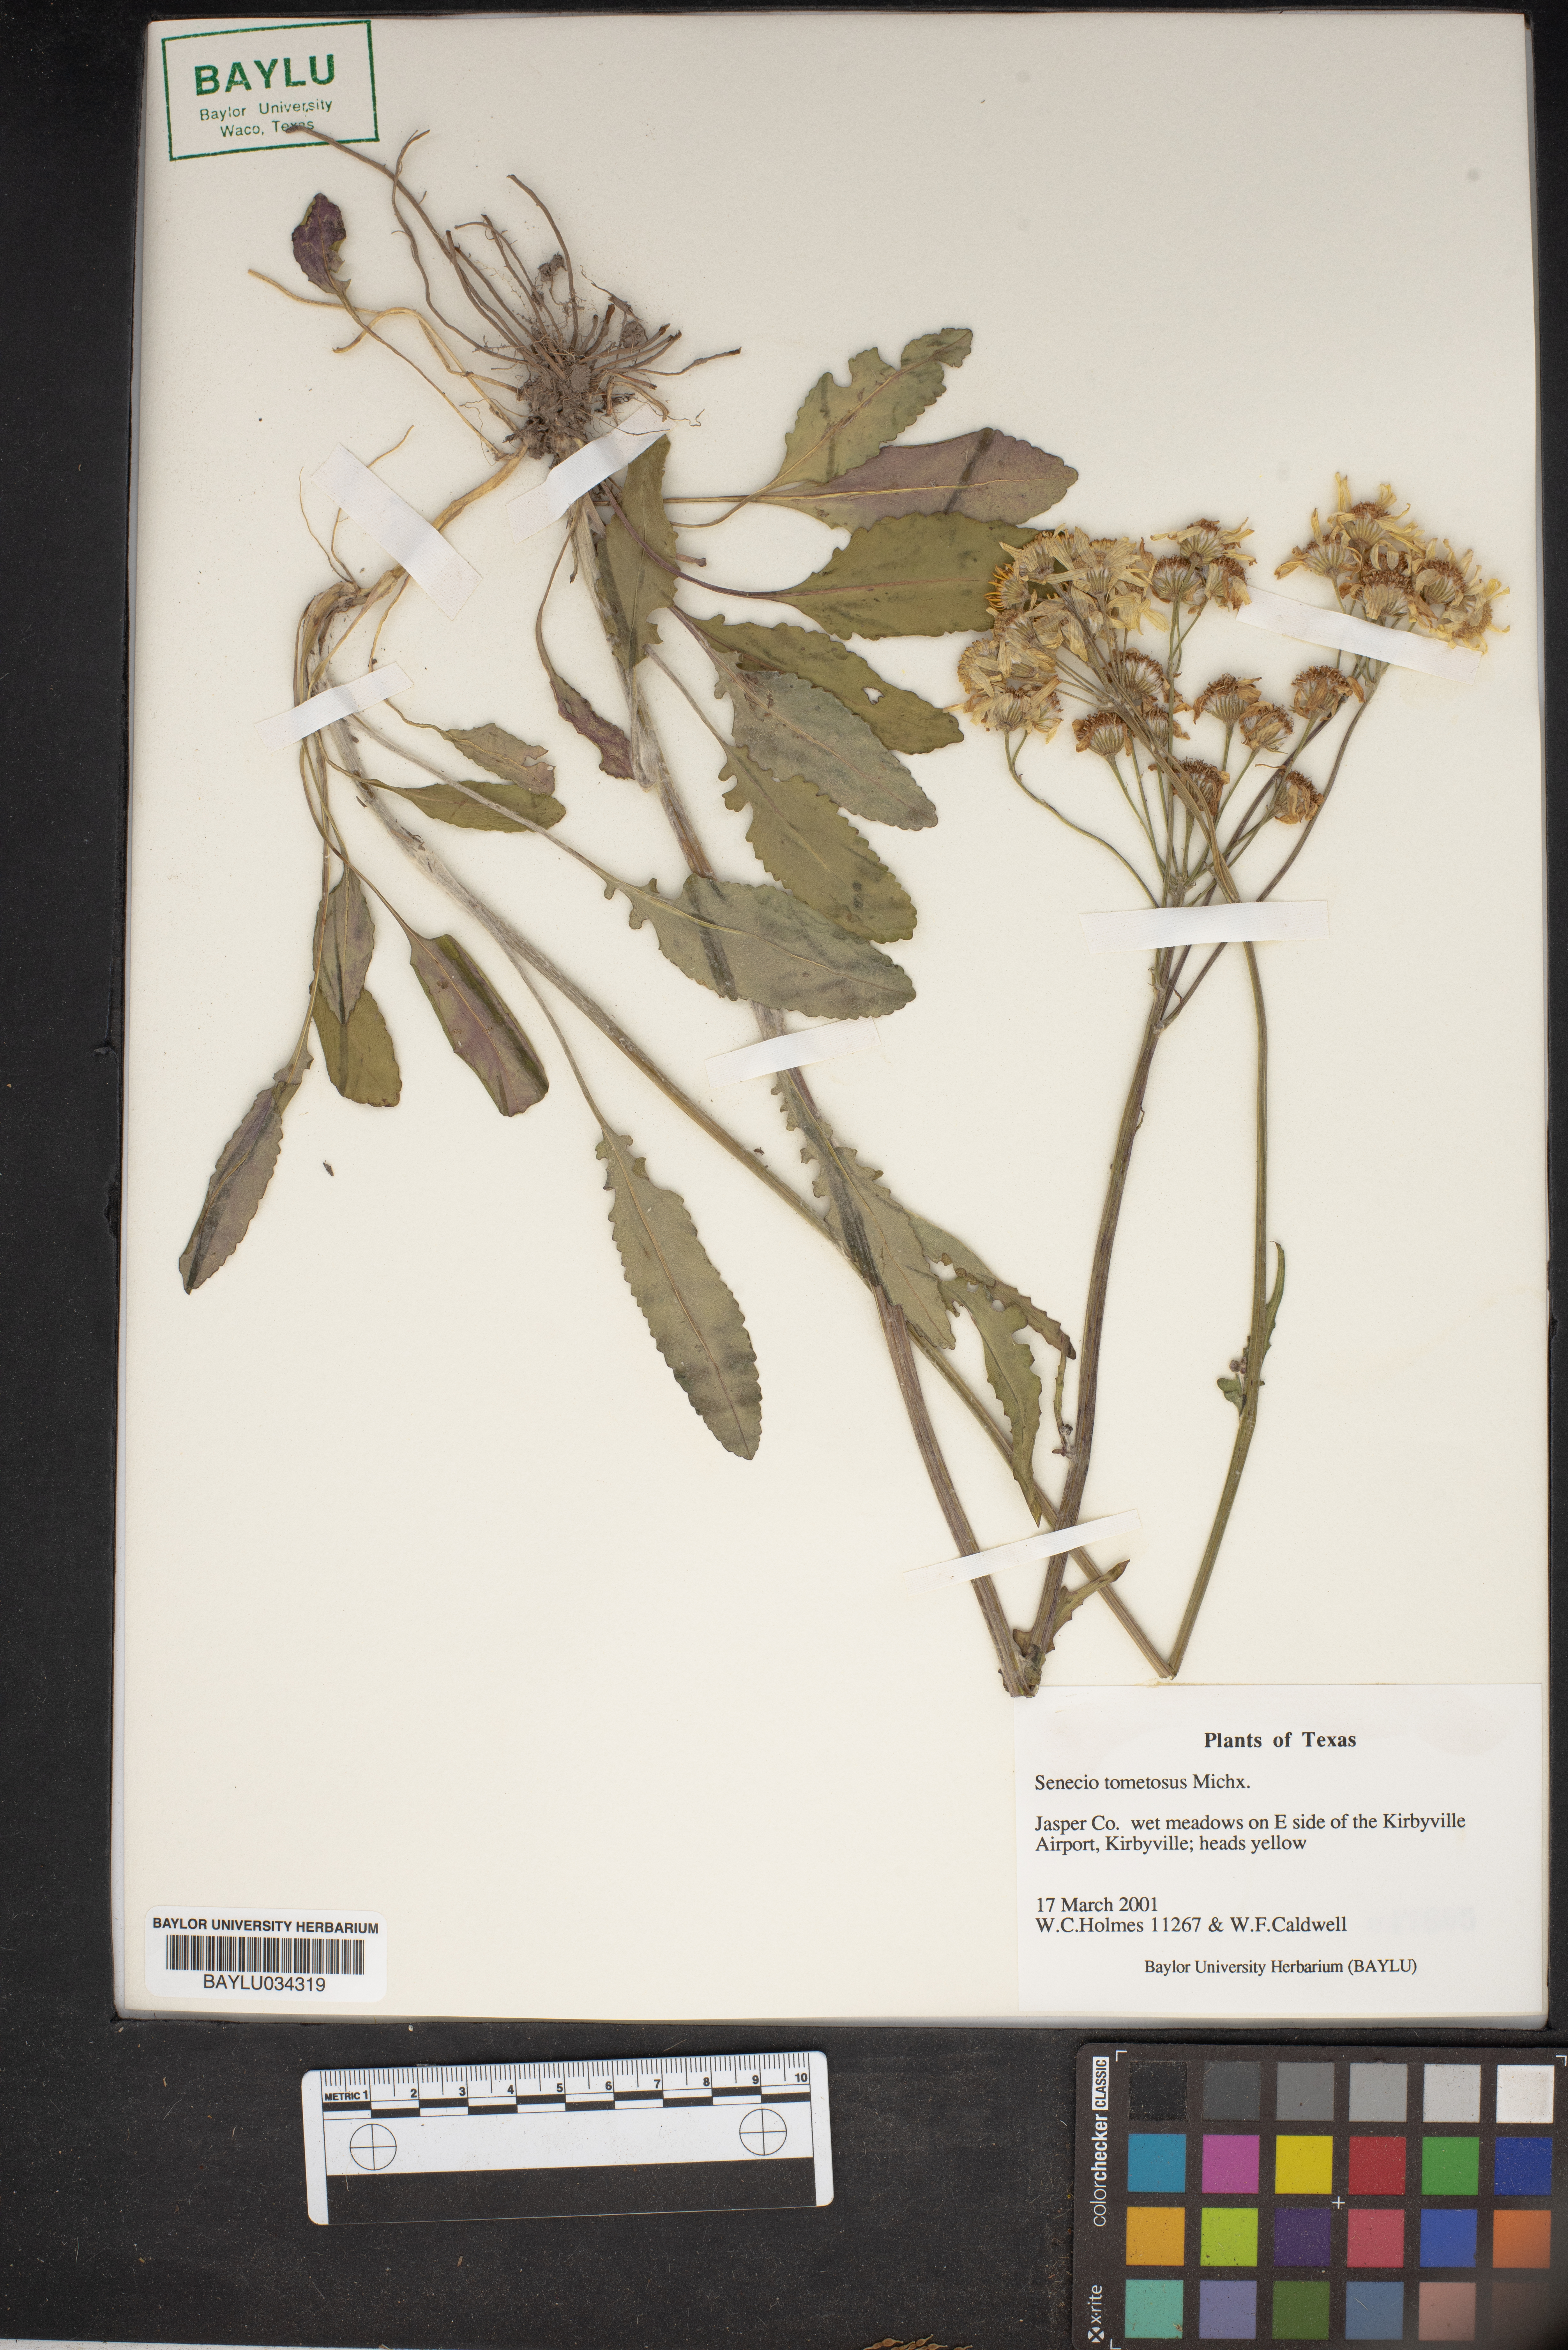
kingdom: Plantae
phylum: Tracheophyta
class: Magnoliopsida
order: Asterales
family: Asteraceae
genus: Senecio
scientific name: Senecio cinerascens
